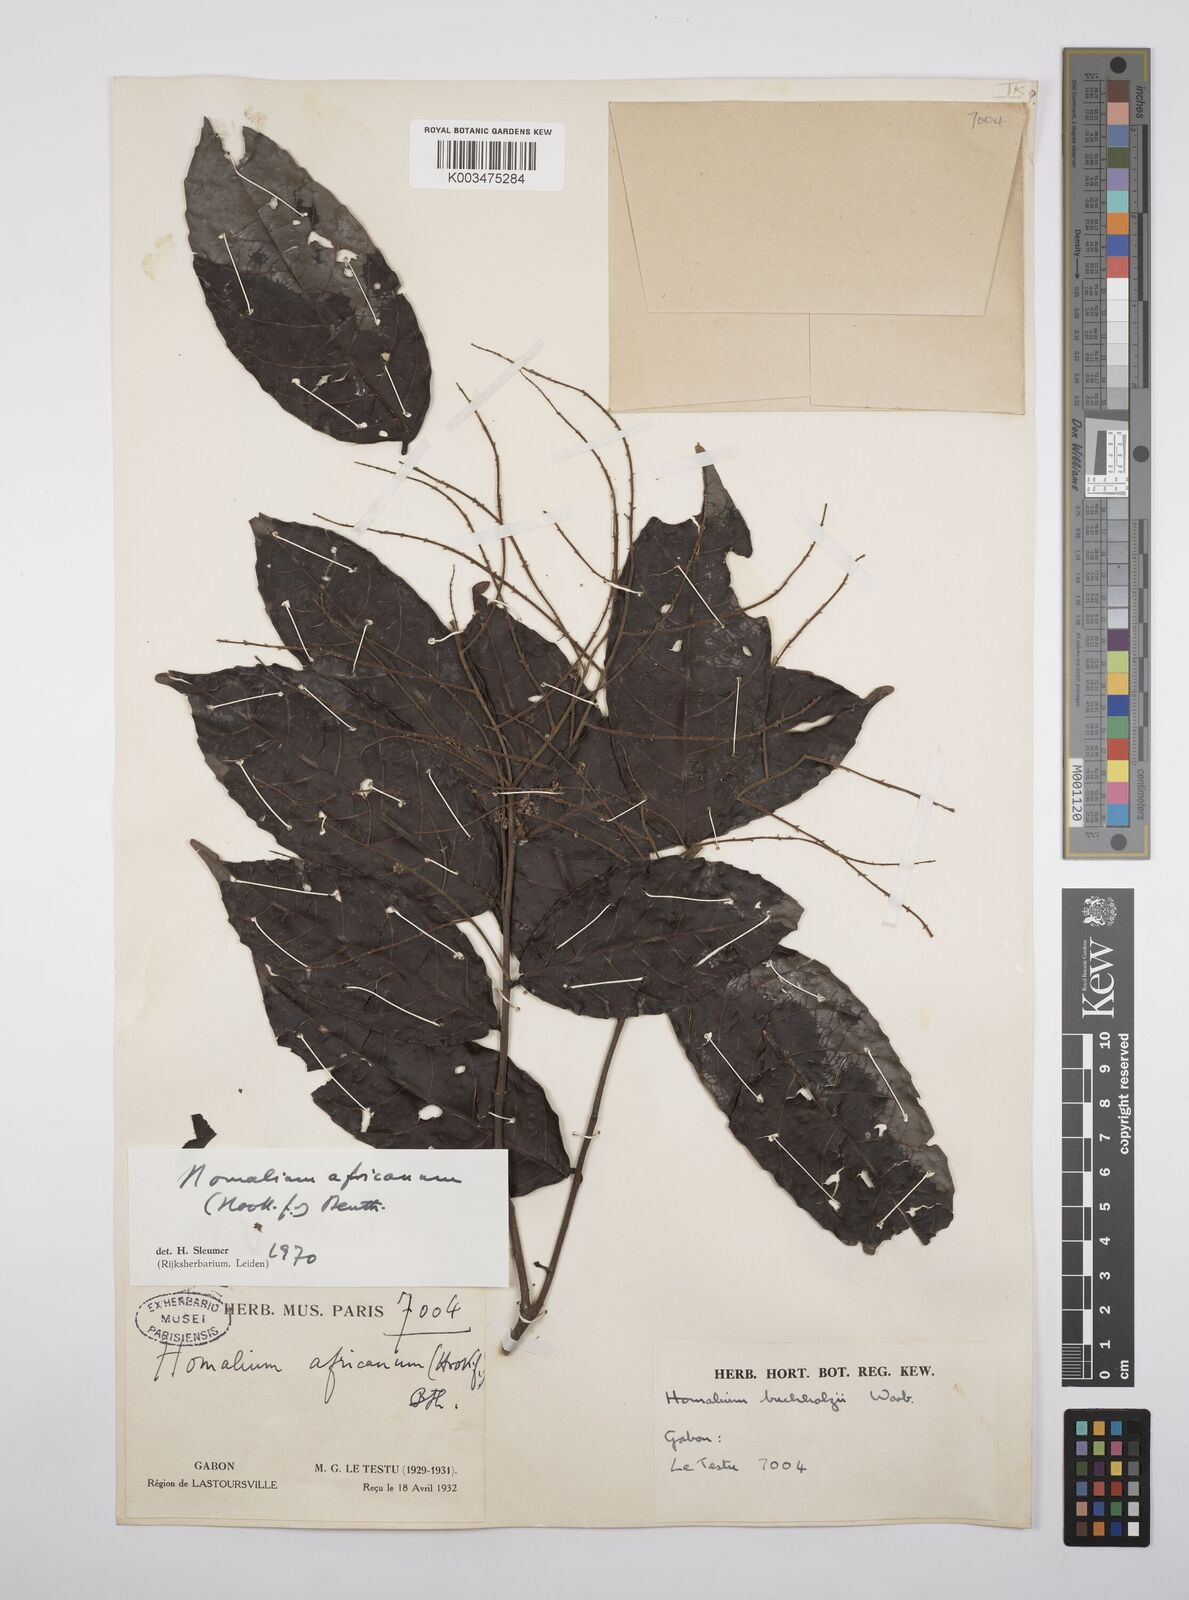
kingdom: Plantae
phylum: Tracheophyta
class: Magnoliopsida
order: Malpighiales
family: Salicaceae
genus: Homalium
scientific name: Homalium africanum
